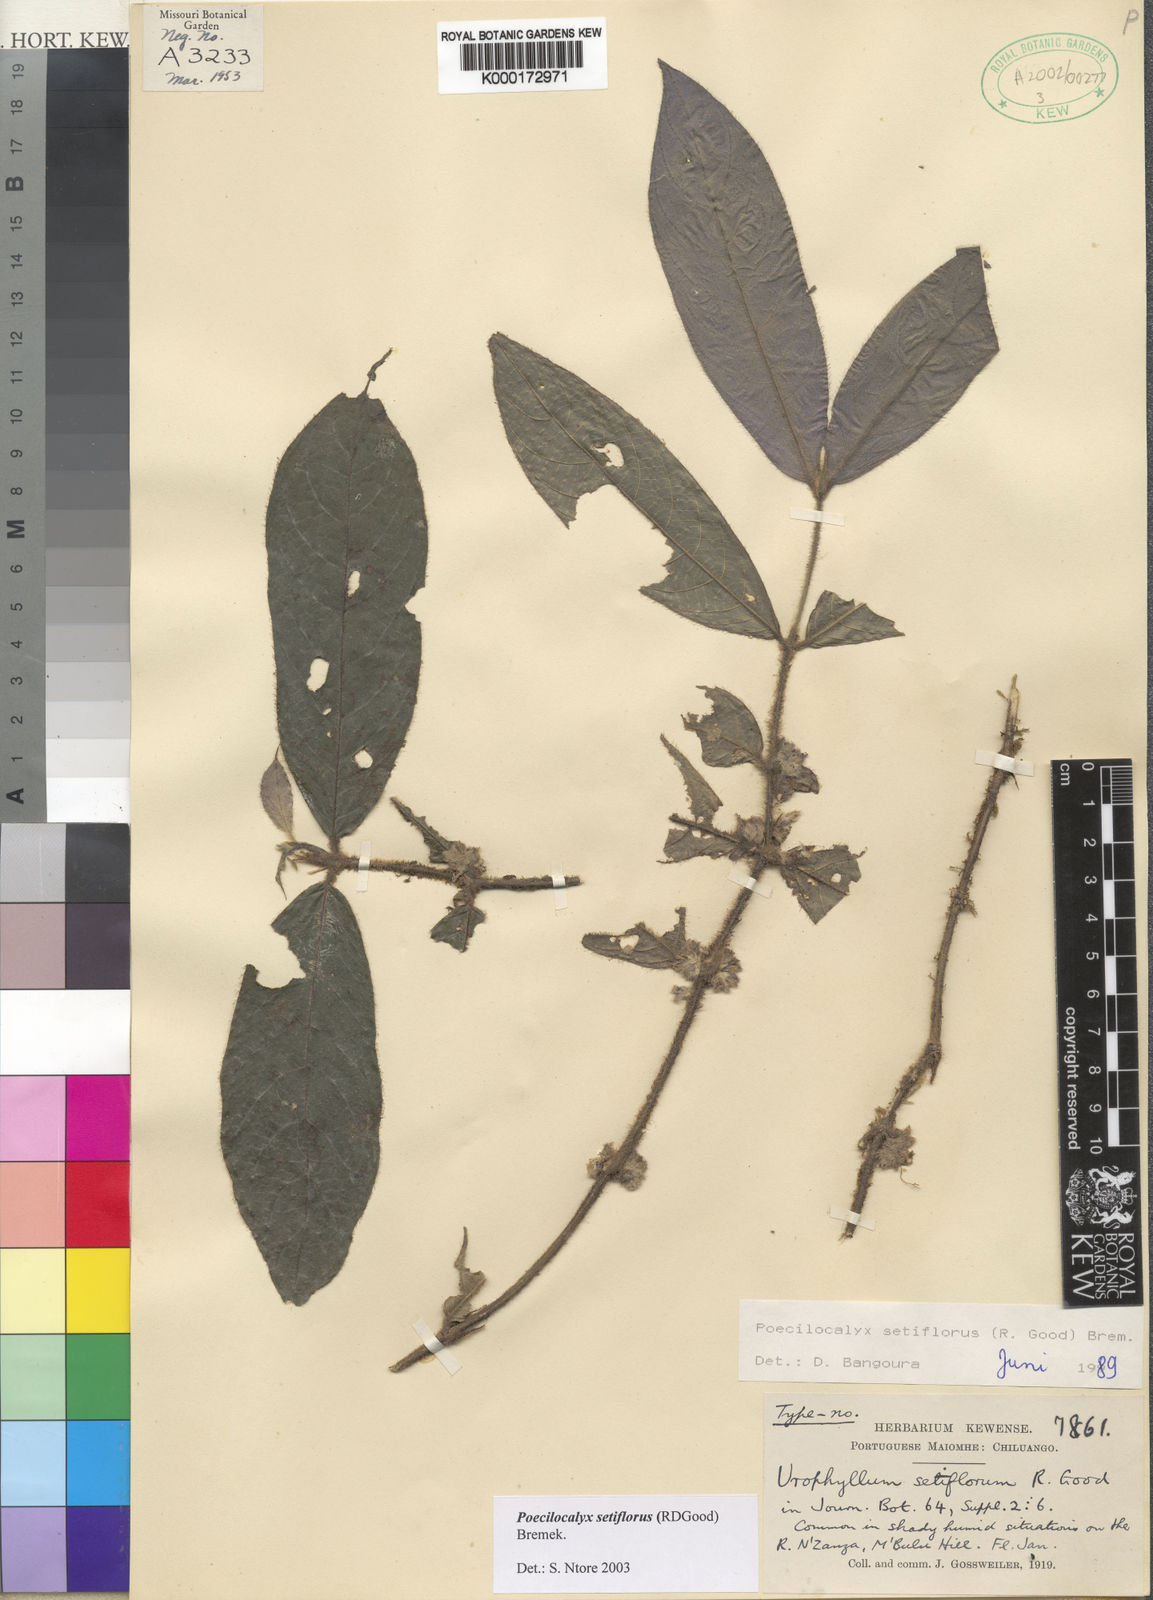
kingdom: Plantae
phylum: Tracheophyta
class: Magnoliopsida
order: Gentianales
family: Rubiaceae
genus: Pauridiantha
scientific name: Pauridiantha setiflora
